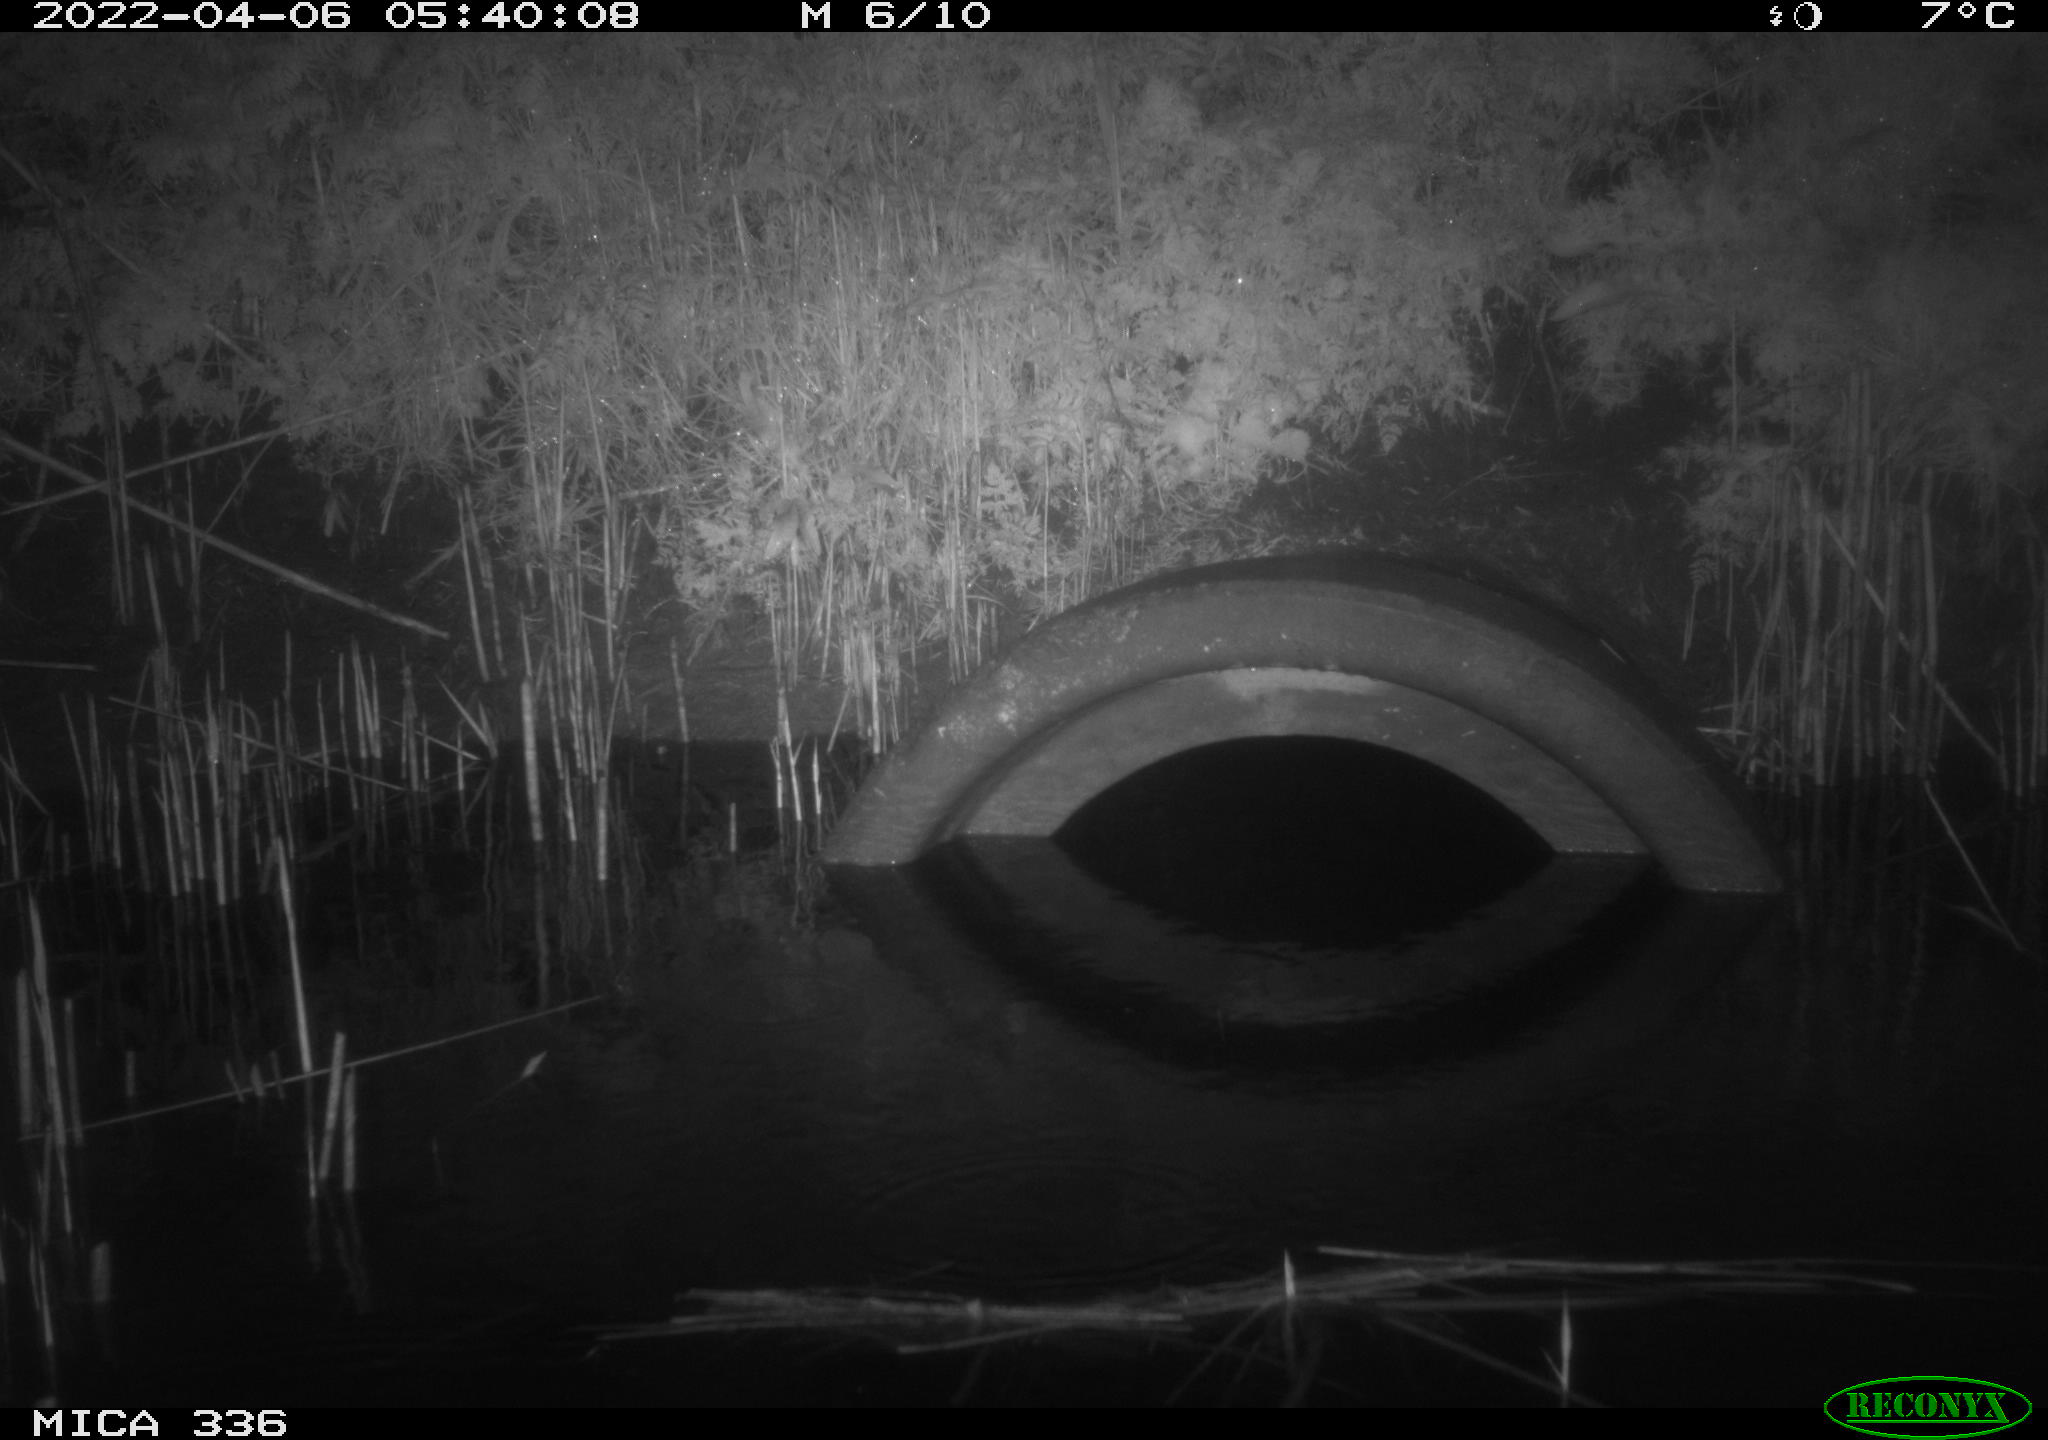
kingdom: Animalia
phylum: Chordata
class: Mammalia
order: Rodentia
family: Muridae
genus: Rattus
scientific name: Rattus norvegicus
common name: Brown rat
